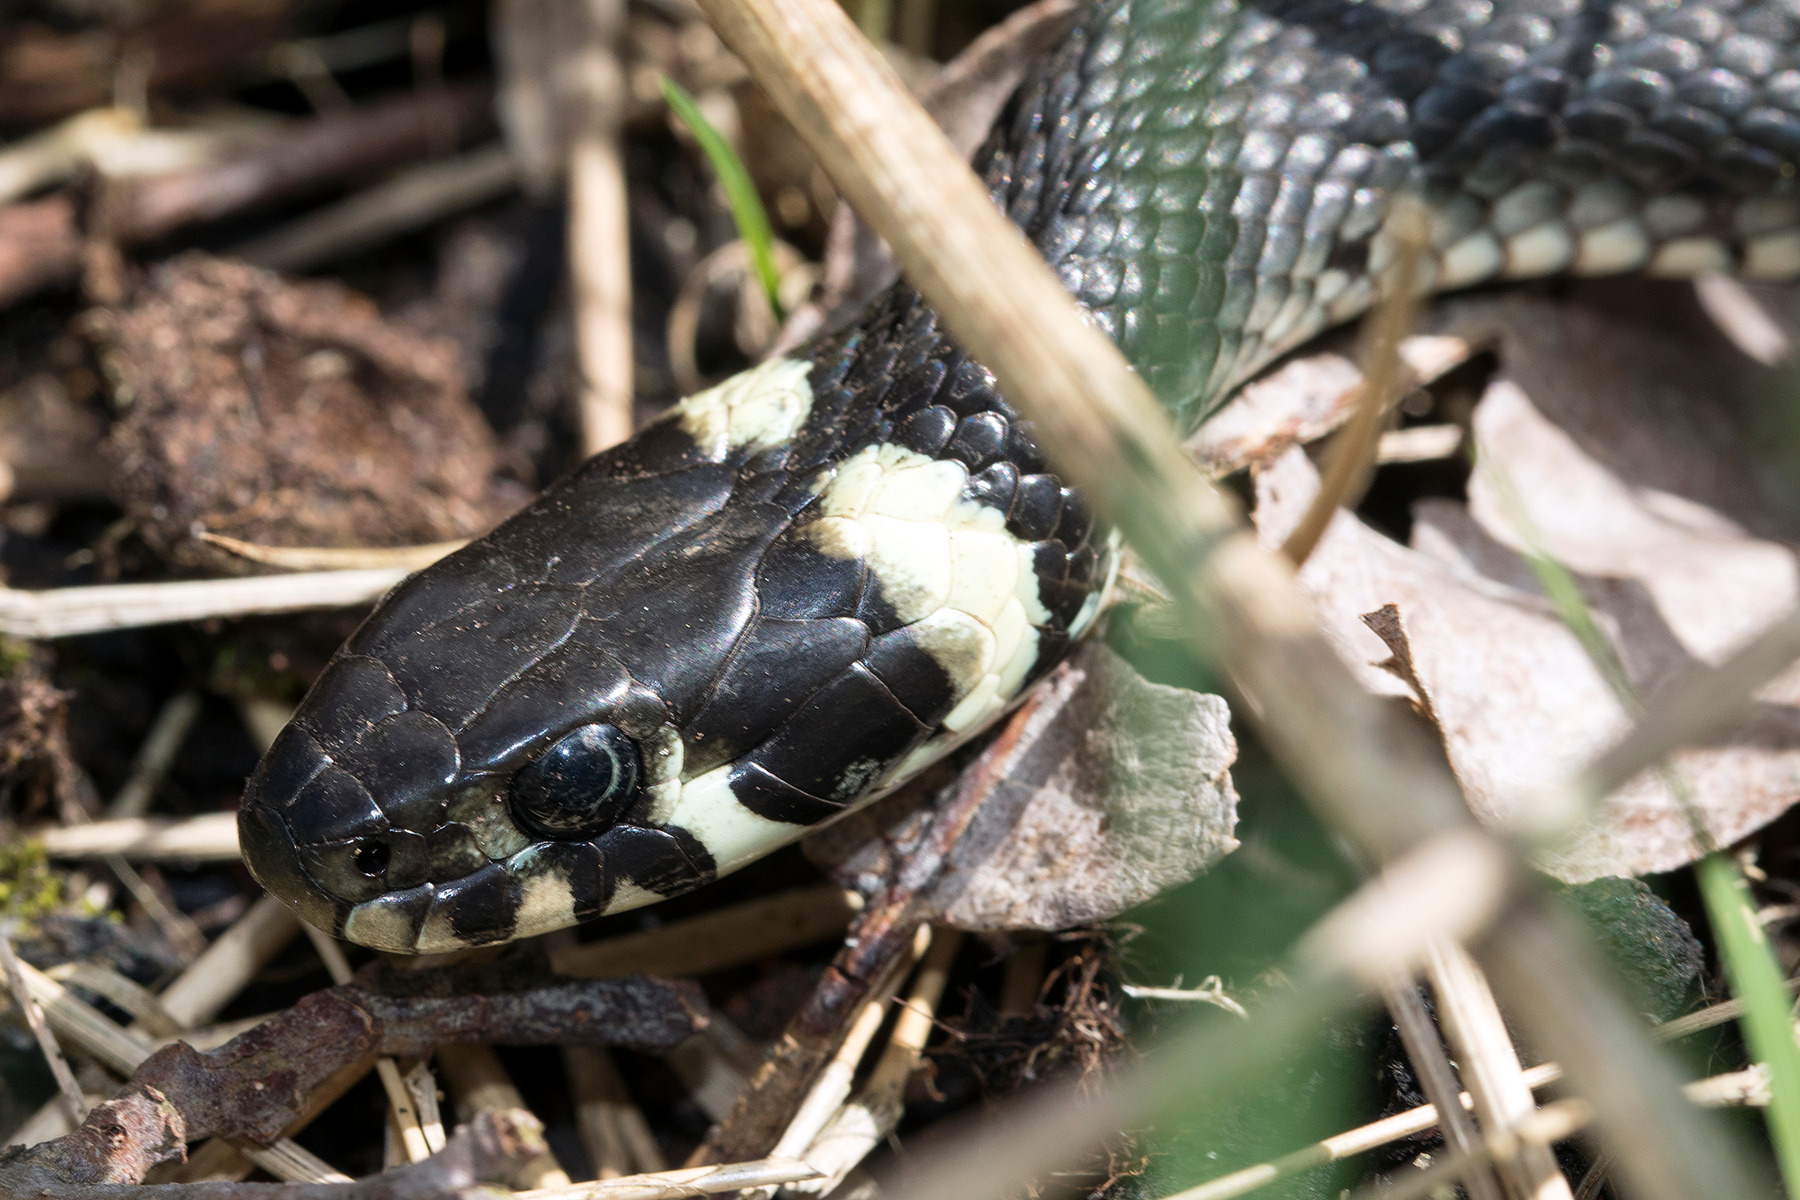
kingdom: Animalia
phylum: Chordata
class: Squamata
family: Colubridae
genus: Natrix
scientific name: Natrix natrix
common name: Snog
